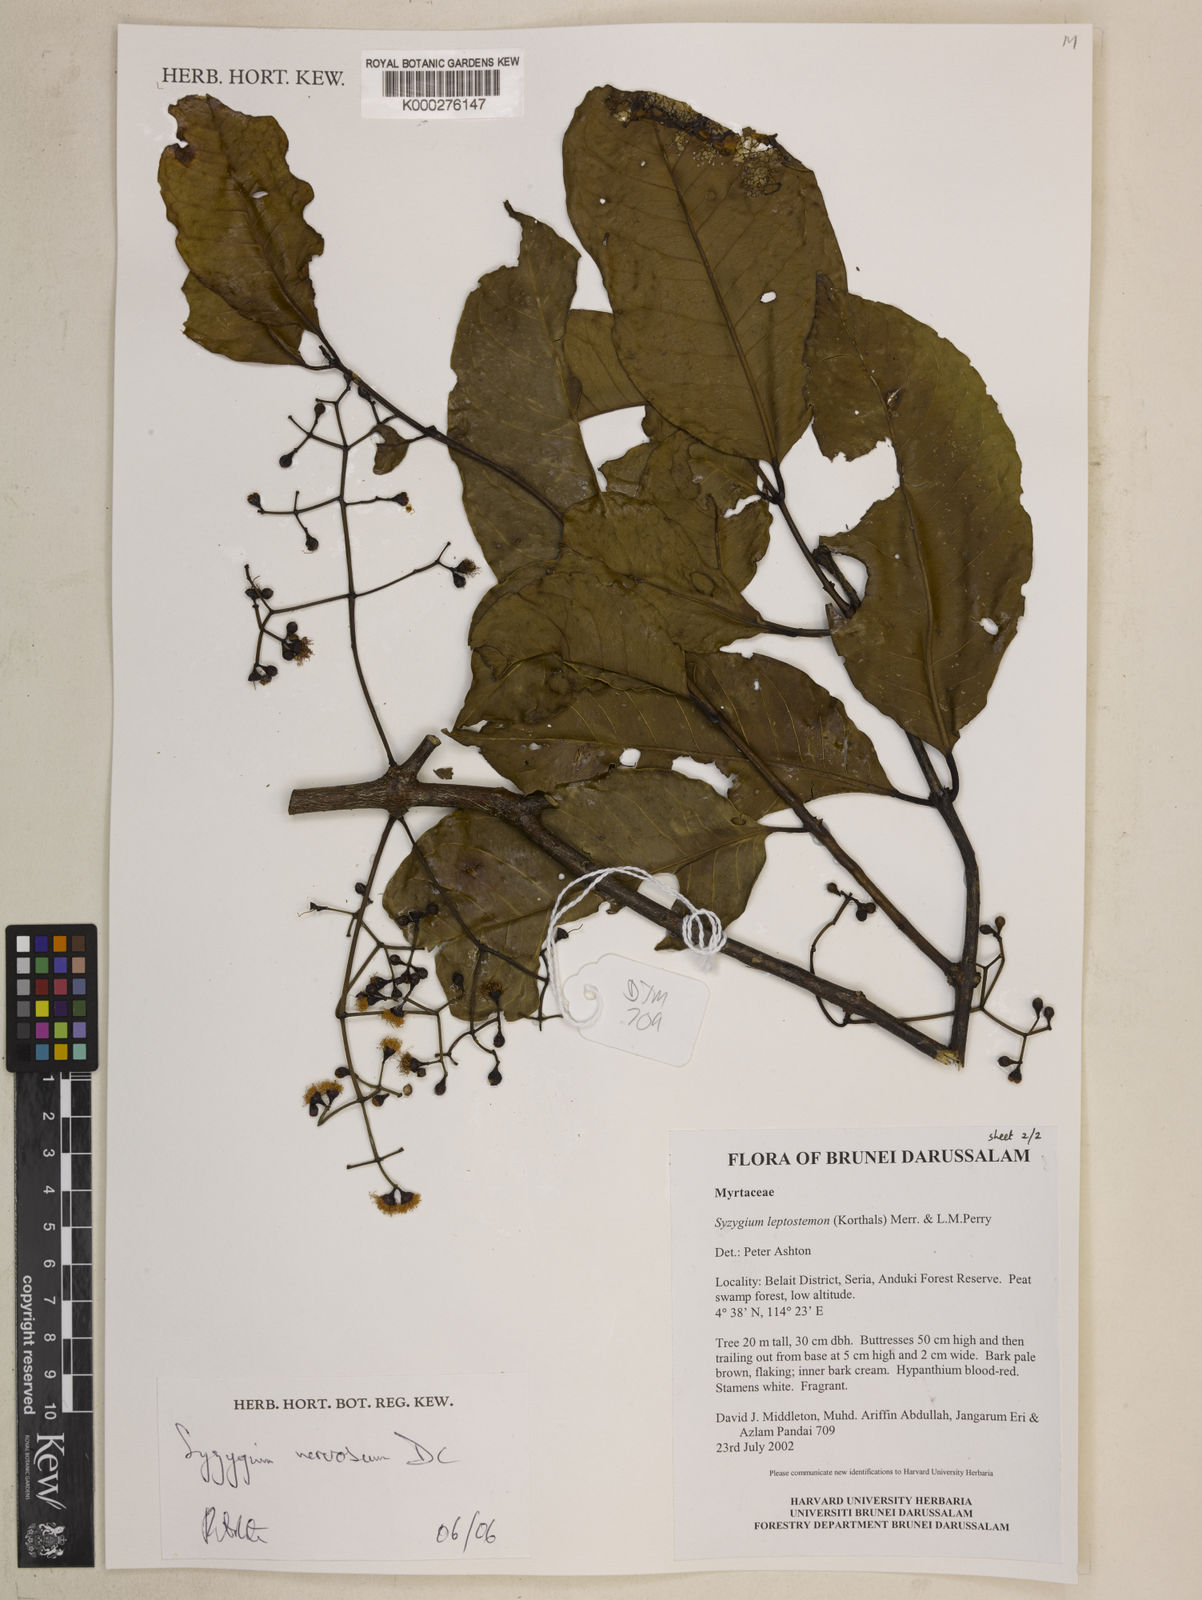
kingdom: Plantae
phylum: Tracheophyta
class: Magnoliopsida
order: Myrtales
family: Myrtaceae
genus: Syzygium
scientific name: Syzygium nervosum
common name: Daly river satinash
